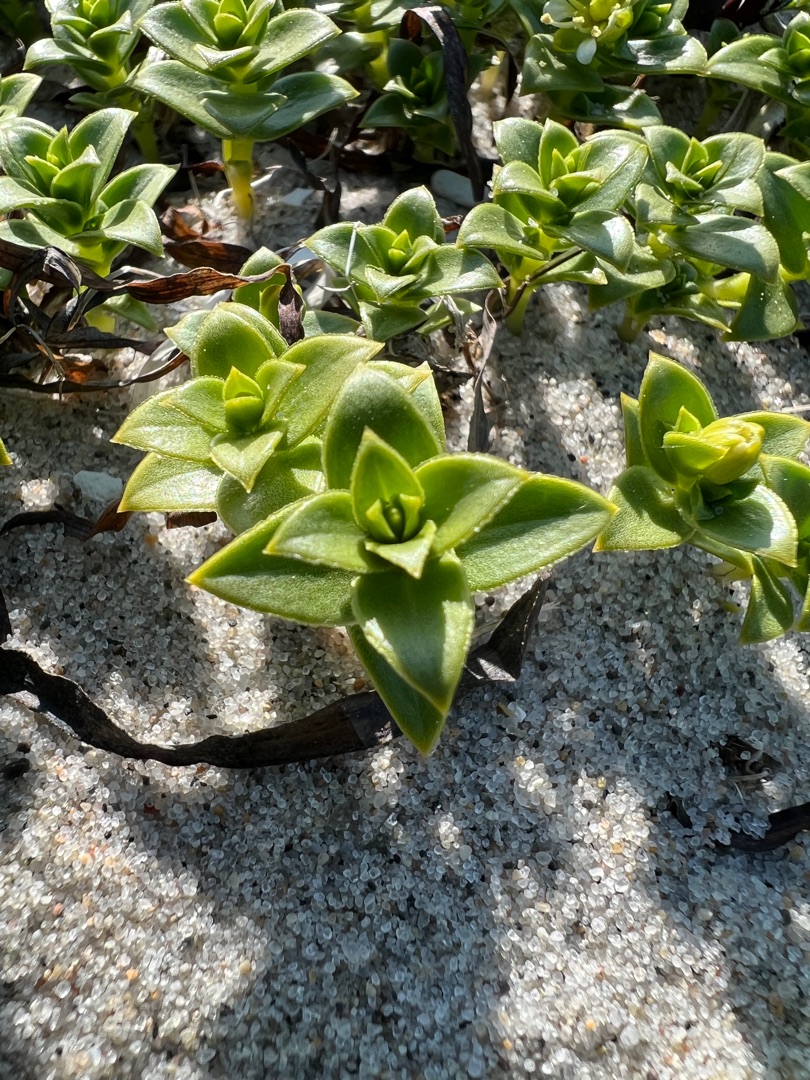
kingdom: Plantae
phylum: Tracheophyta
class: Magnoliopsida
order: Caryophyllales
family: Caryophyllaceae
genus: Honckenya
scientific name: Honckenya peploides
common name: Strandarve
